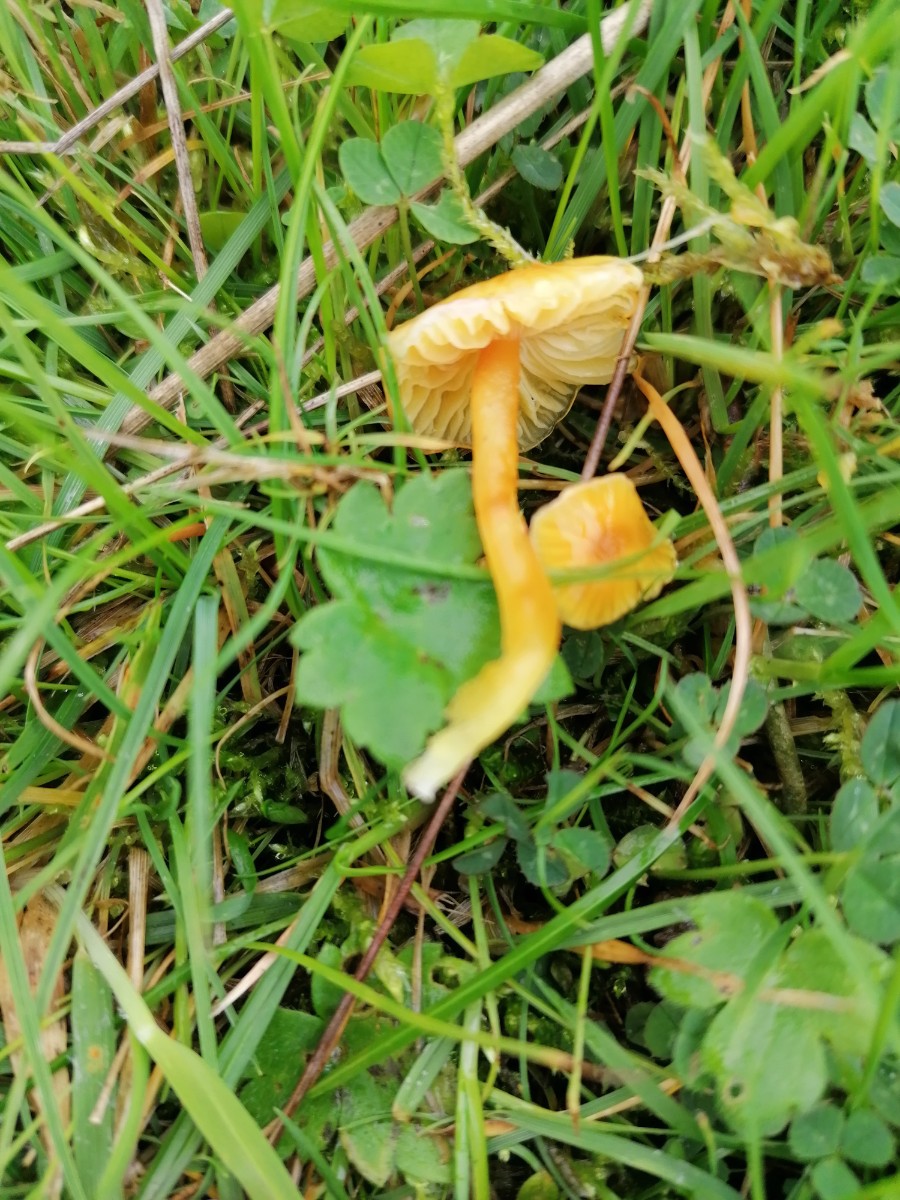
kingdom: Fungi
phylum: Basidiomycota
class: Agaricomycetes
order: Agaricales
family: Hygrophoraceae
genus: Hygrocybe
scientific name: Hygrocybe glutinipes
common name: slimstokket vokshat
